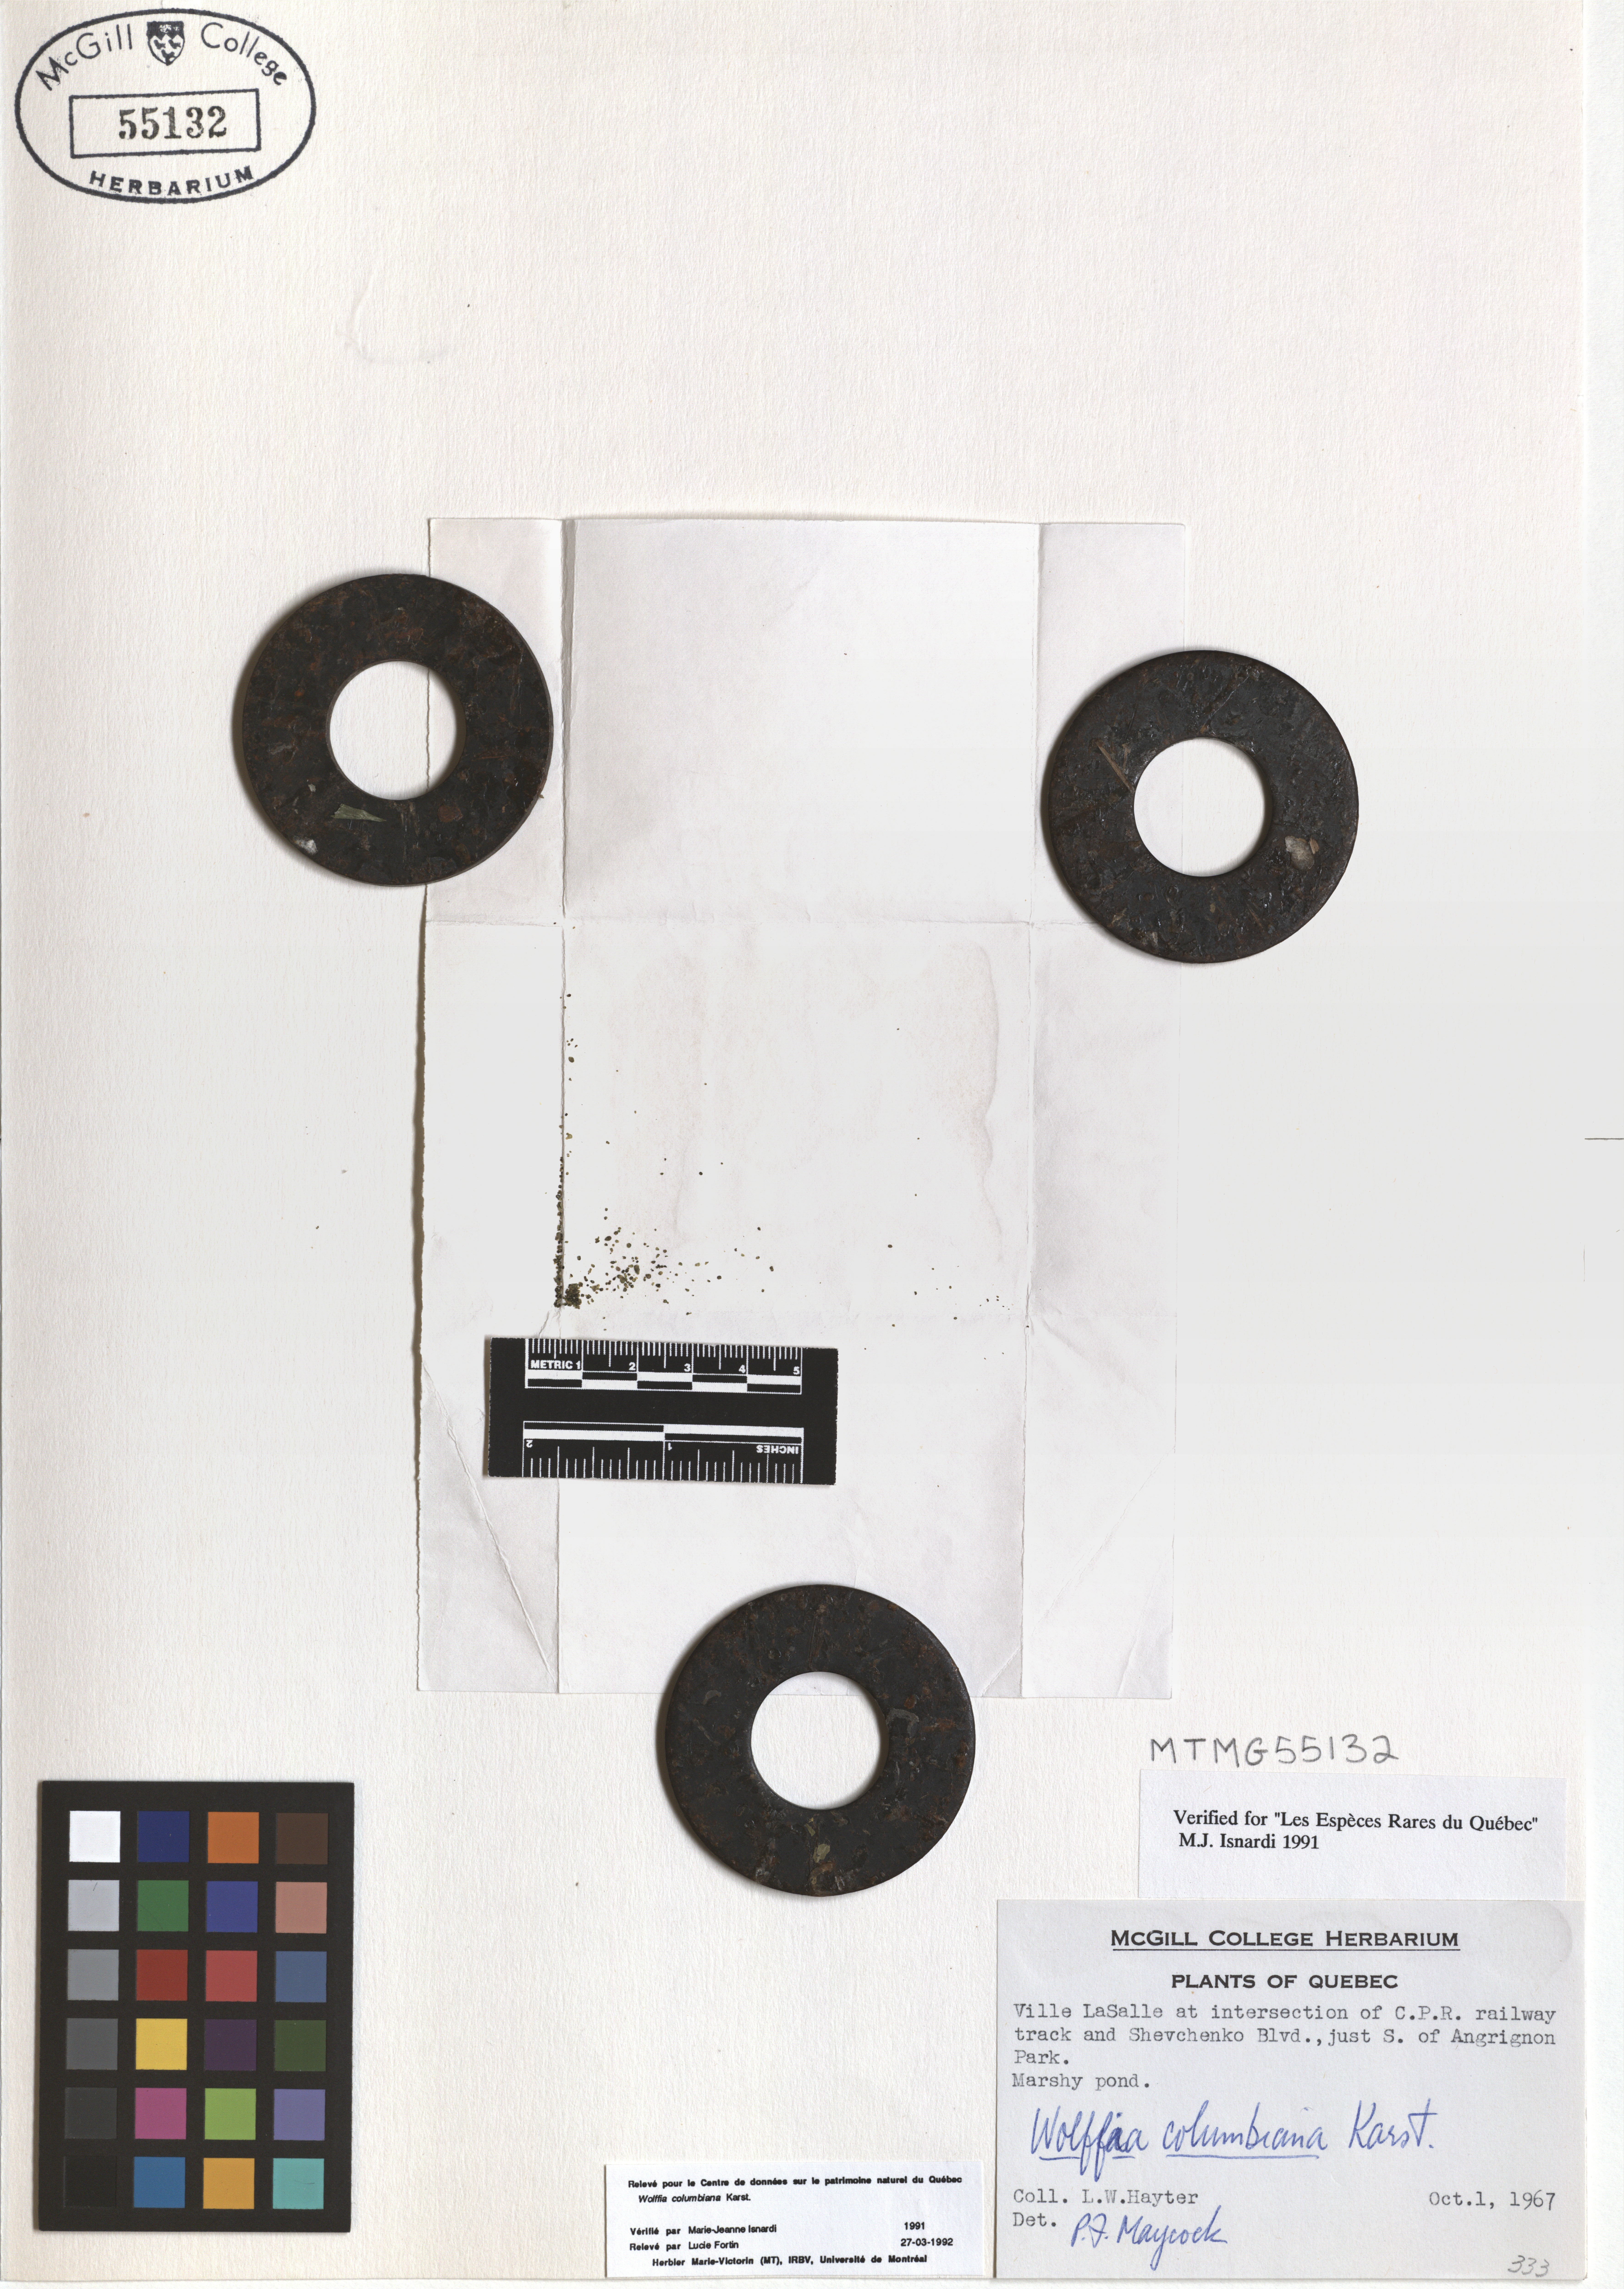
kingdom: Plantae
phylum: Tracheophyta
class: Liliopsida
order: Alismatales
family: Araceae
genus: Wolffia
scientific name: Wolffia columbiana
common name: Columbia watermeal
